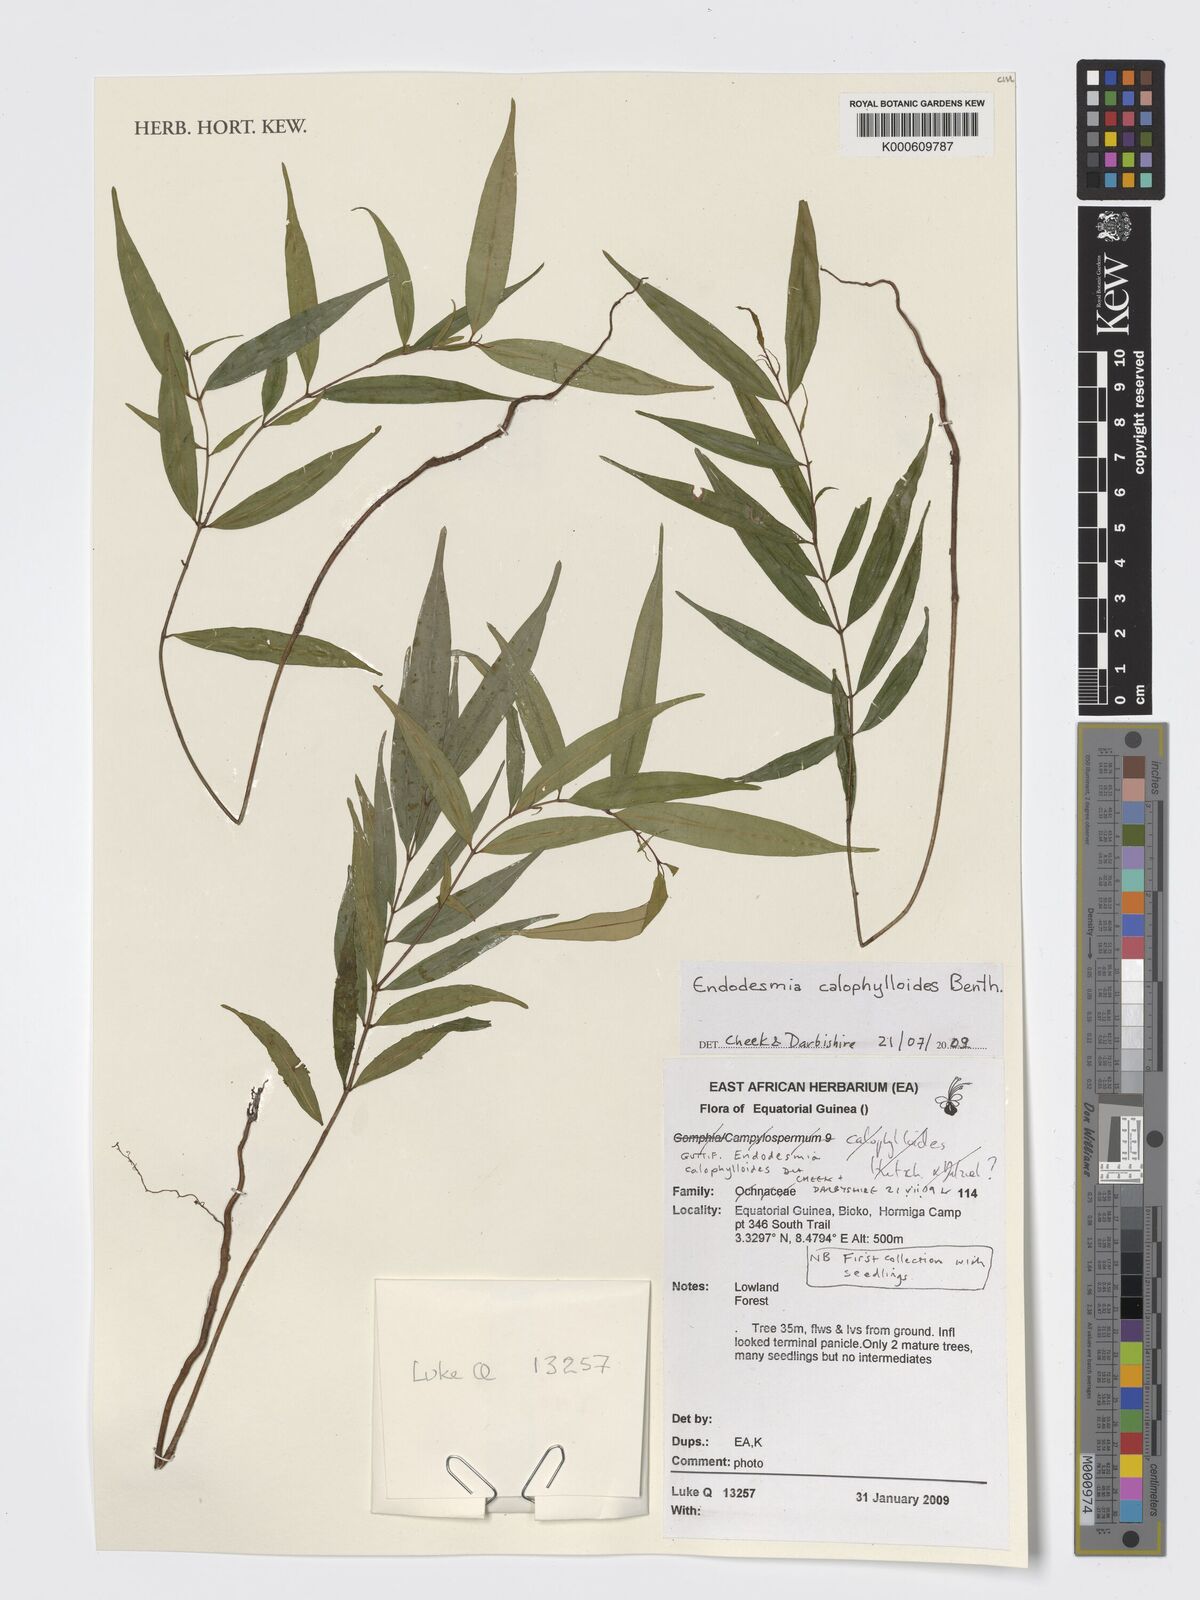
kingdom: Plantae
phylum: Tracheophyta
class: Magnoliopsida
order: Malpighiales
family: Calophyllaceae
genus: Endodesmia
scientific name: Endodesmia calophylloides
